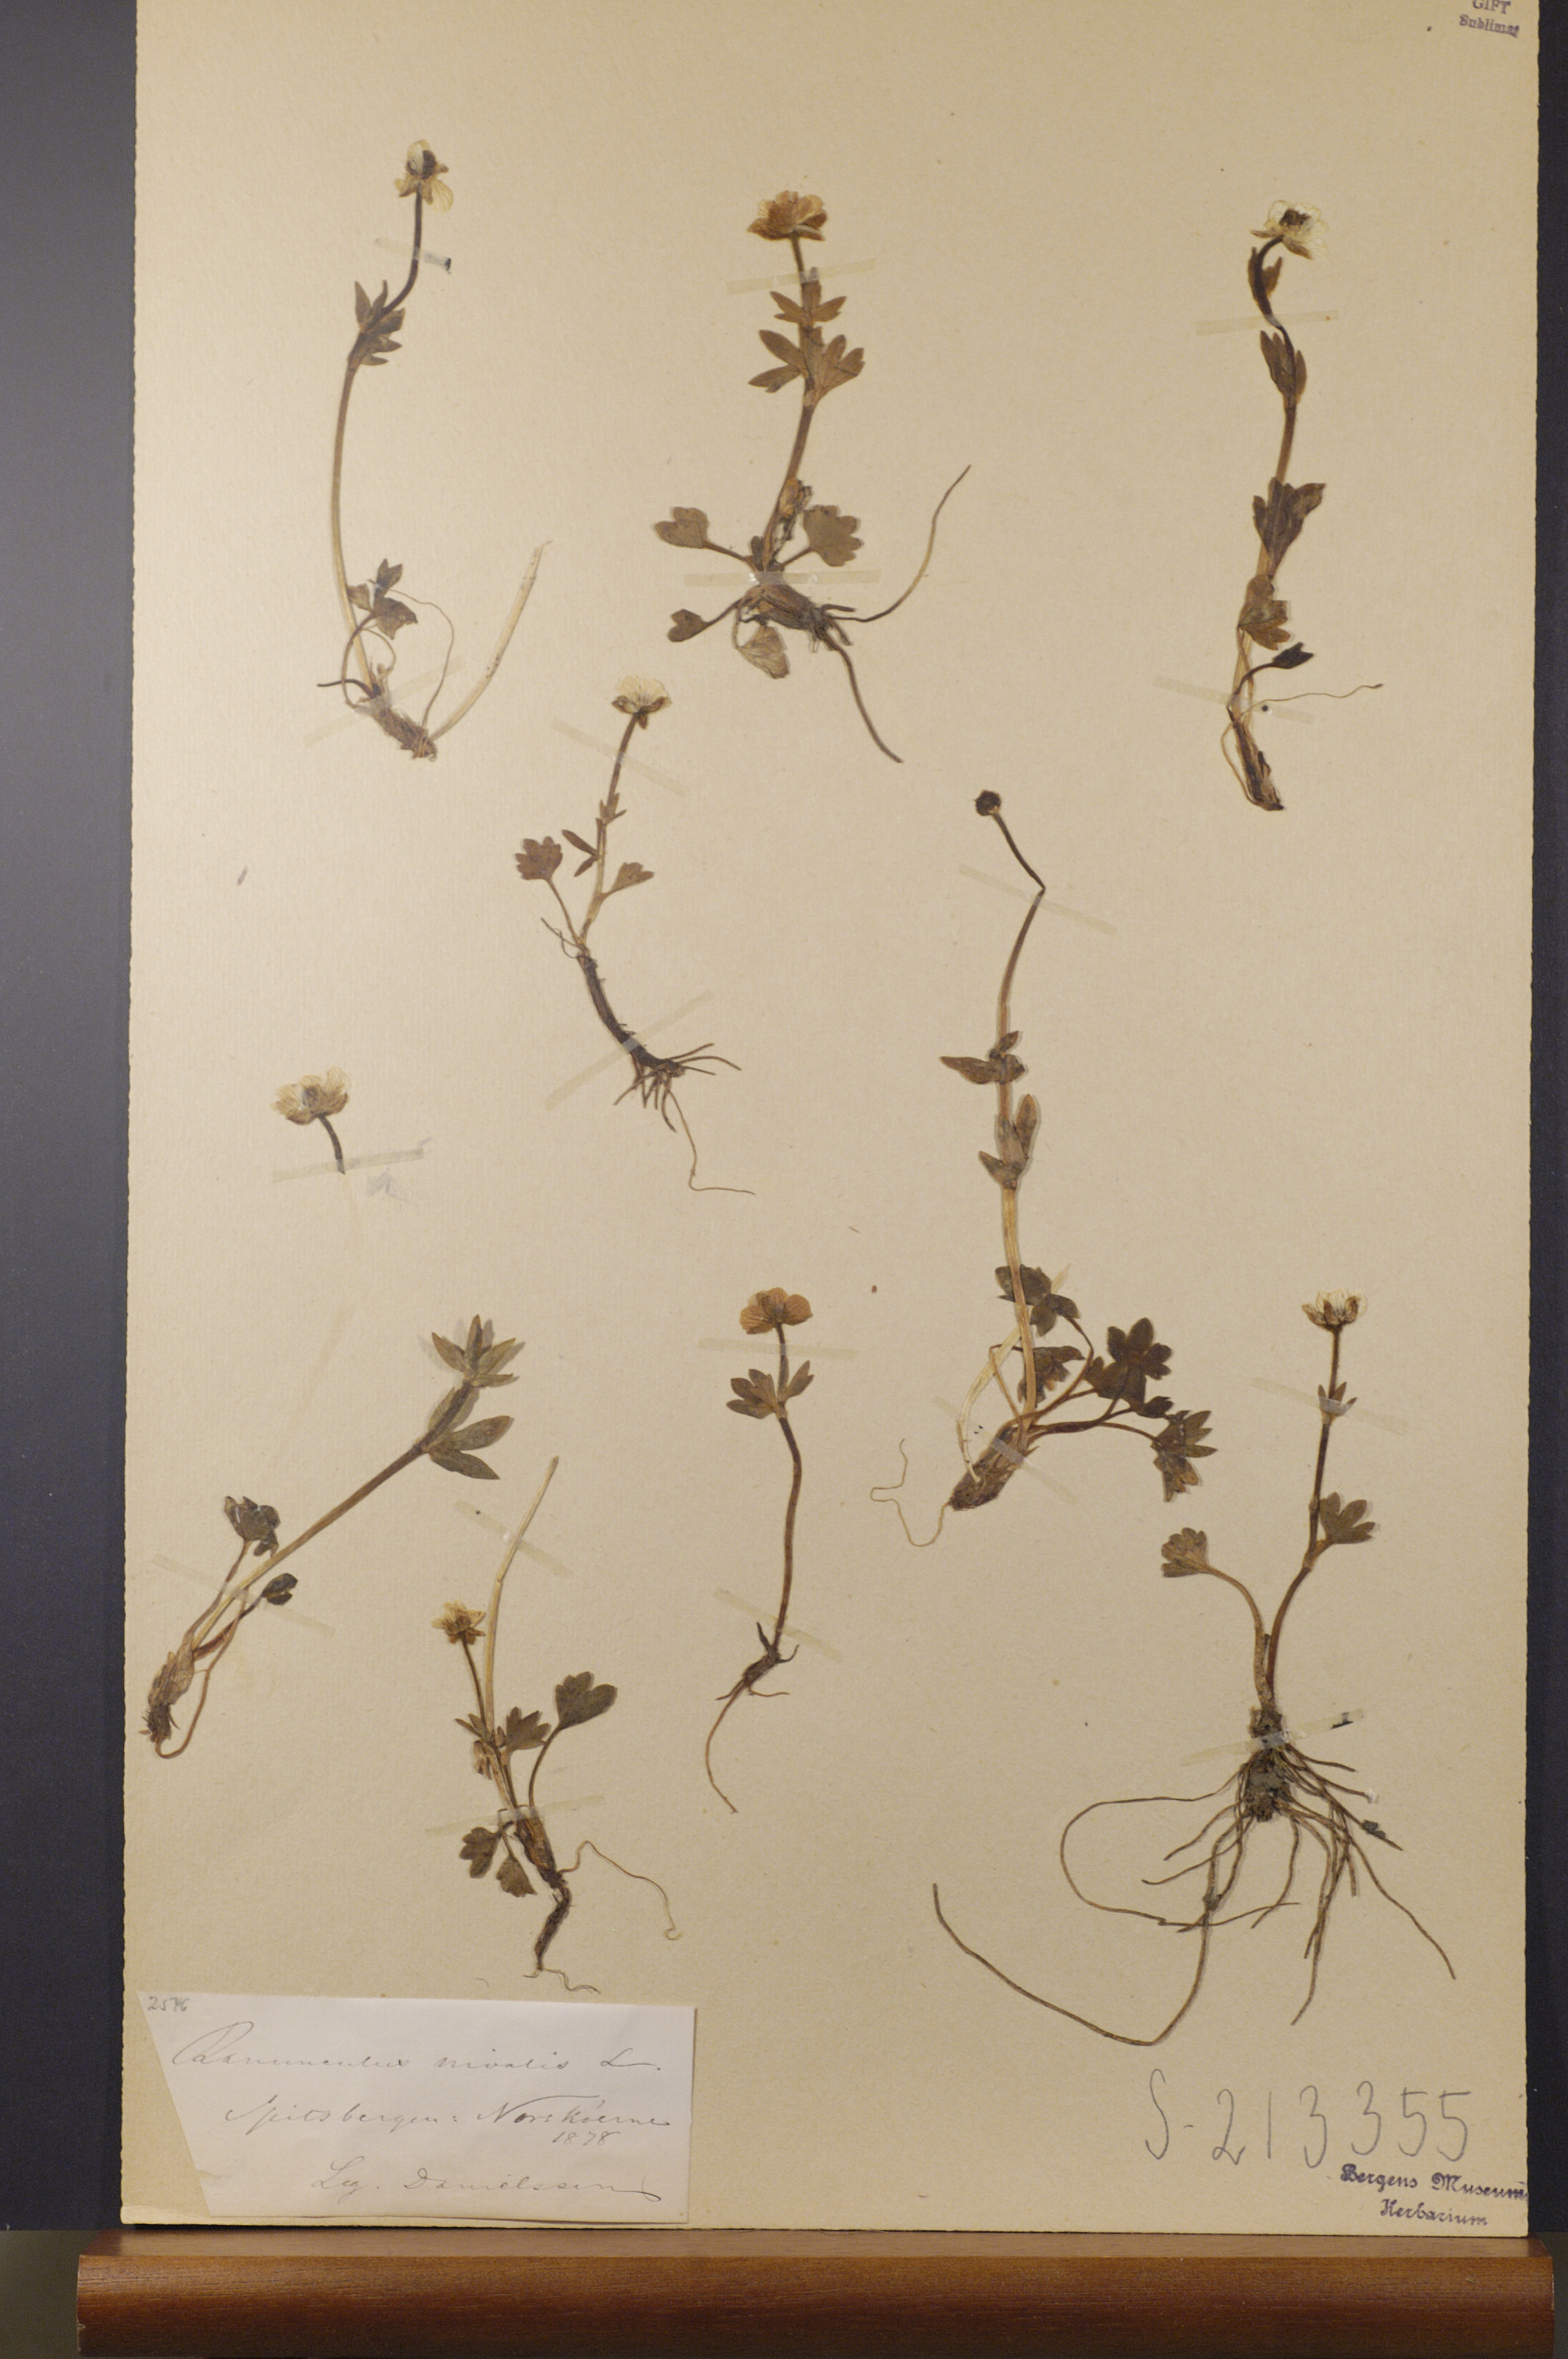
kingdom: Plantae
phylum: Tracheophyta
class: Magnoliopsida
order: Ranunculales
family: Ranunculaceae
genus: Ranunculus
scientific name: Ranunculus nivalis
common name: Snow buttercup
